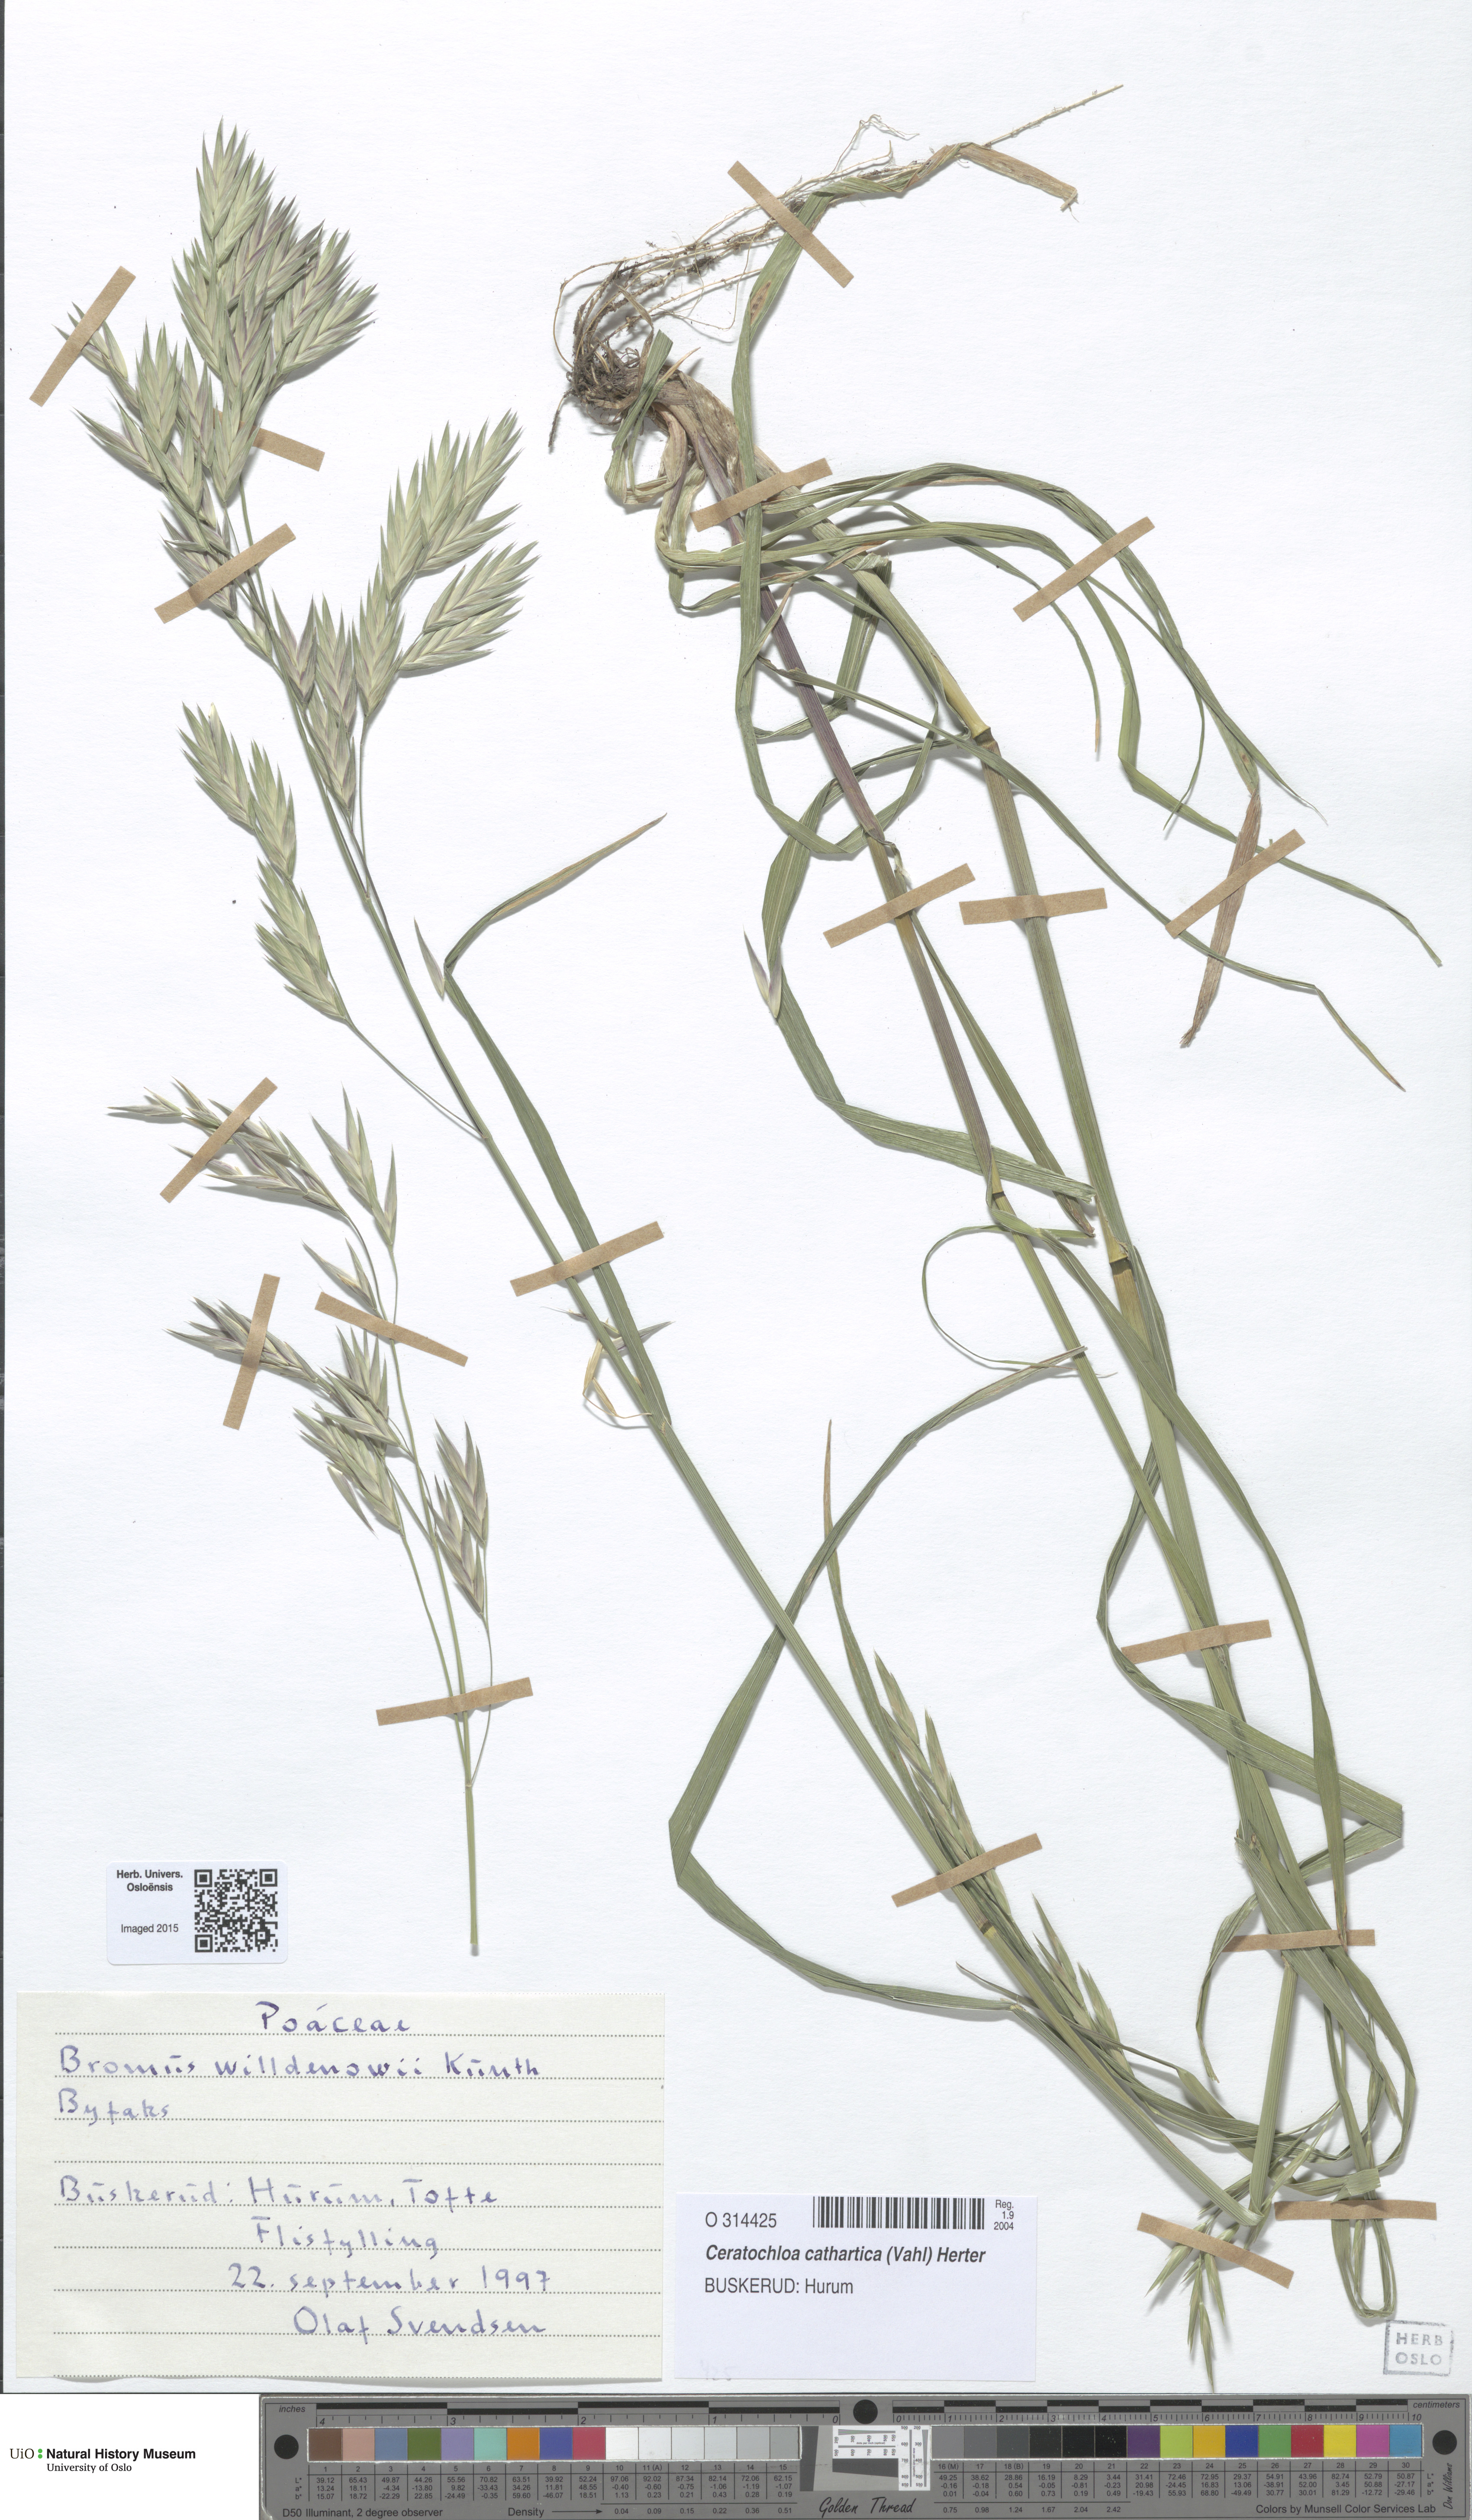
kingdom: Plantae
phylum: Tracheophyta
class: Liliopsida
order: Poales
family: Poaceae
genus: Bromus
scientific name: Bromus catharticus
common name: Rescuegrass
